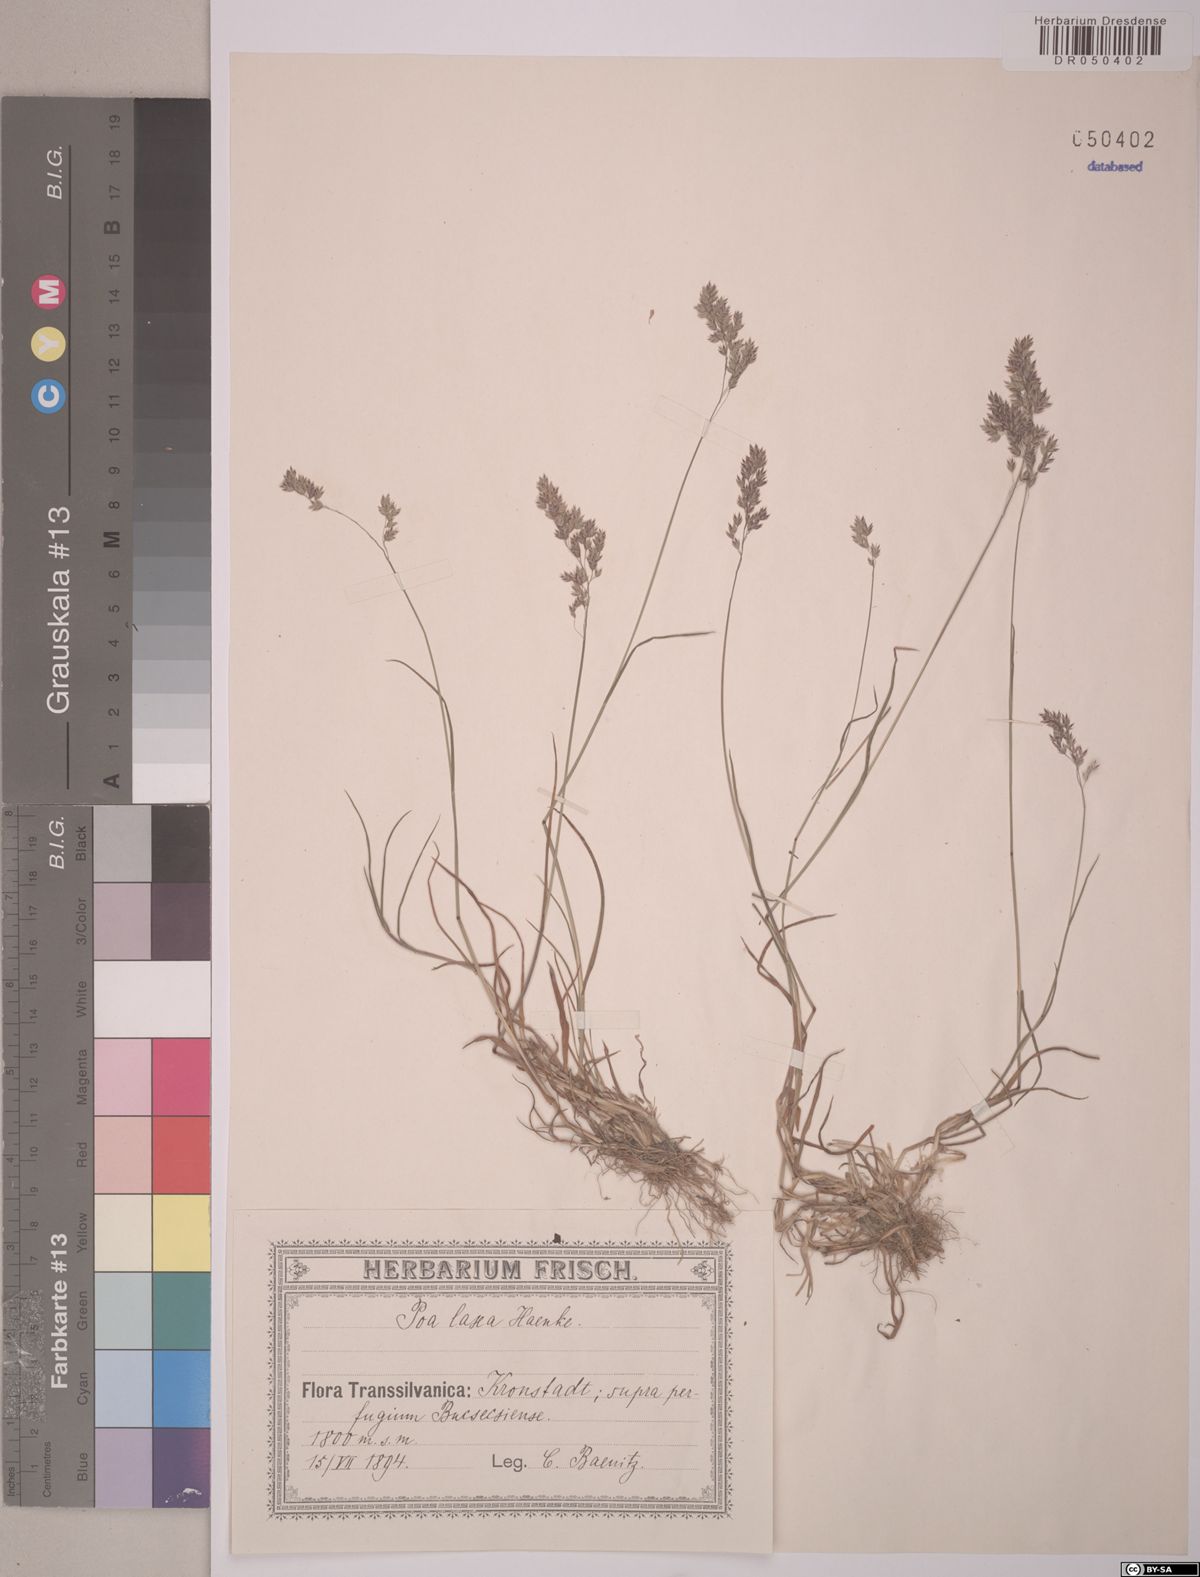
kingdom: Plantae
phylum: Tracheophyta
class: Liliopsida
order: Poales
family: Poaceae
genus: Poa
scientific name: Poa laxa
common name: Lax bluegrass
